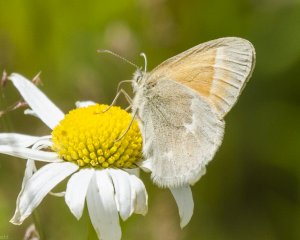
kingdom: Animalia
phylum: Arthropoda
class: Insecta
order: Lepidoptera
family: Nymphalidae
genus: Coenonympha
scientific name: Coenonympha tullia
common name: Large Heath
